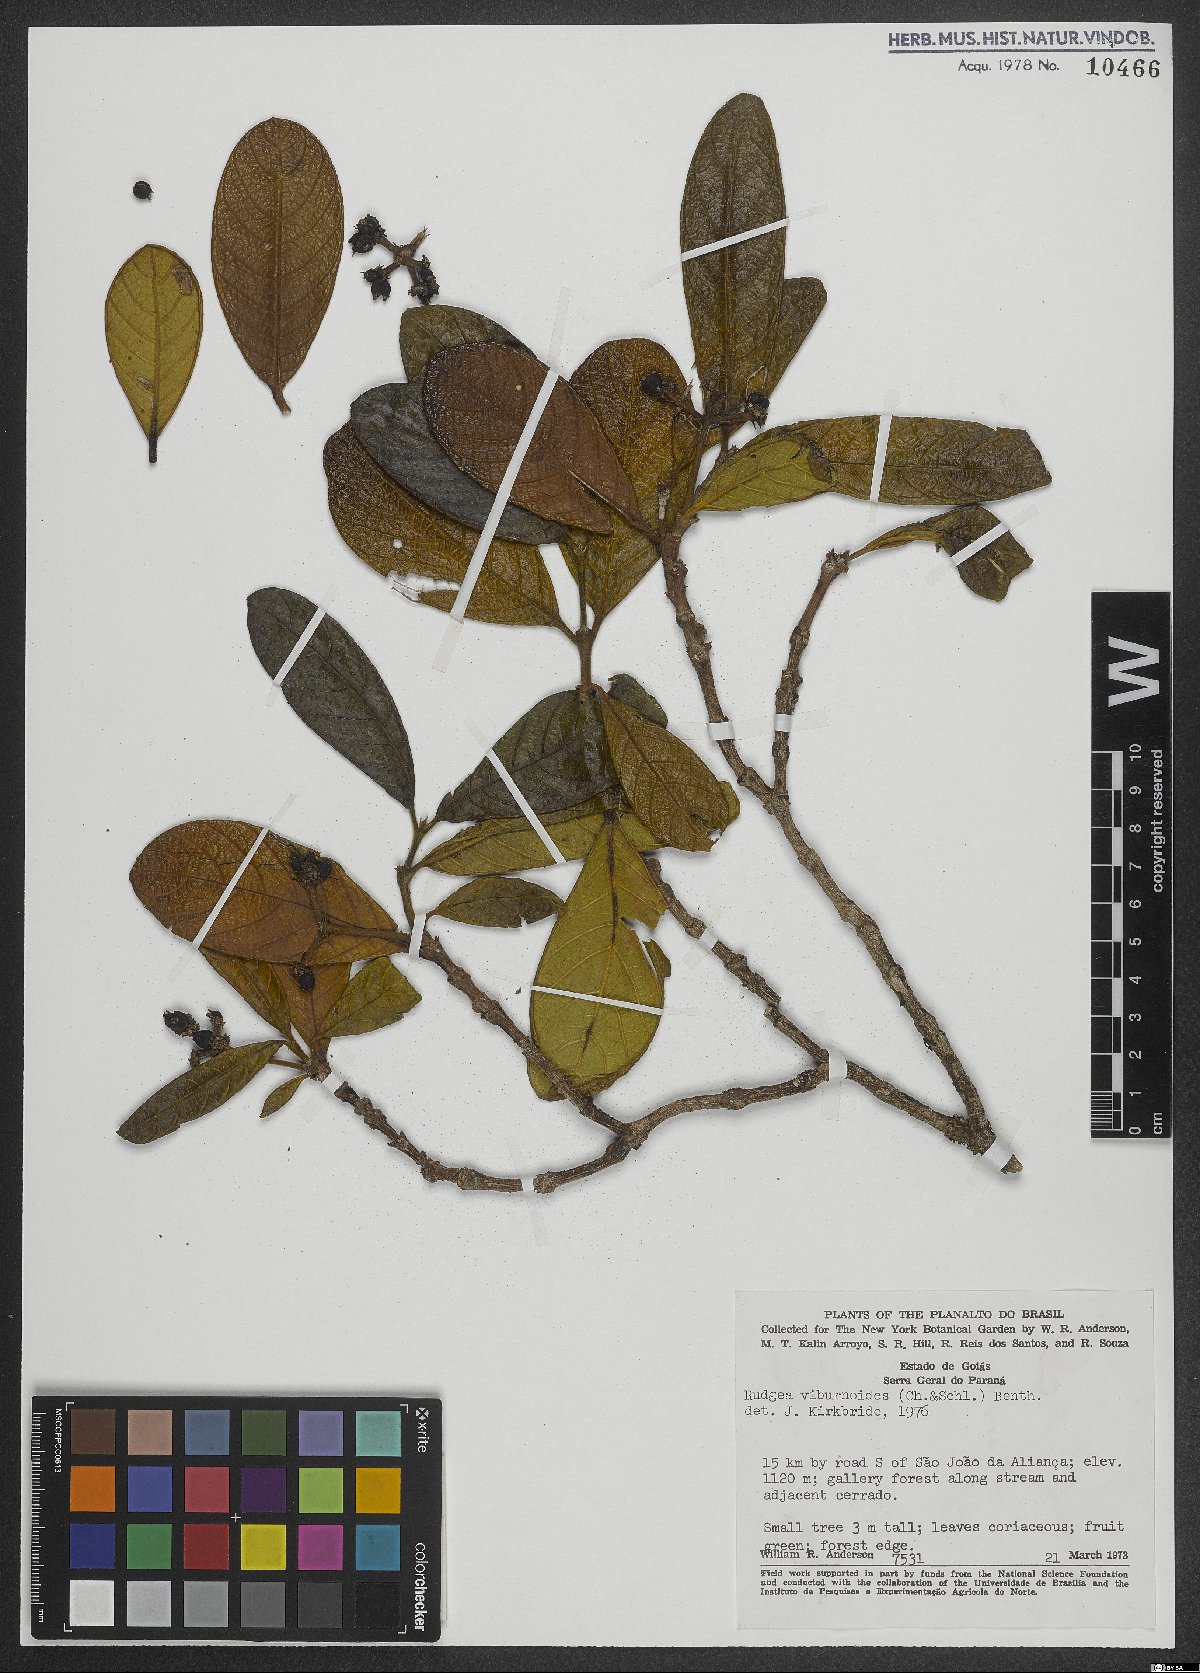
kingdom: Plantae
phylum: Tracheophyta
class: Magnoliopsida
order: Gentianales
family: Rubiaceae
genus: Rudgea
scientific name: Rudgea viburnoides
